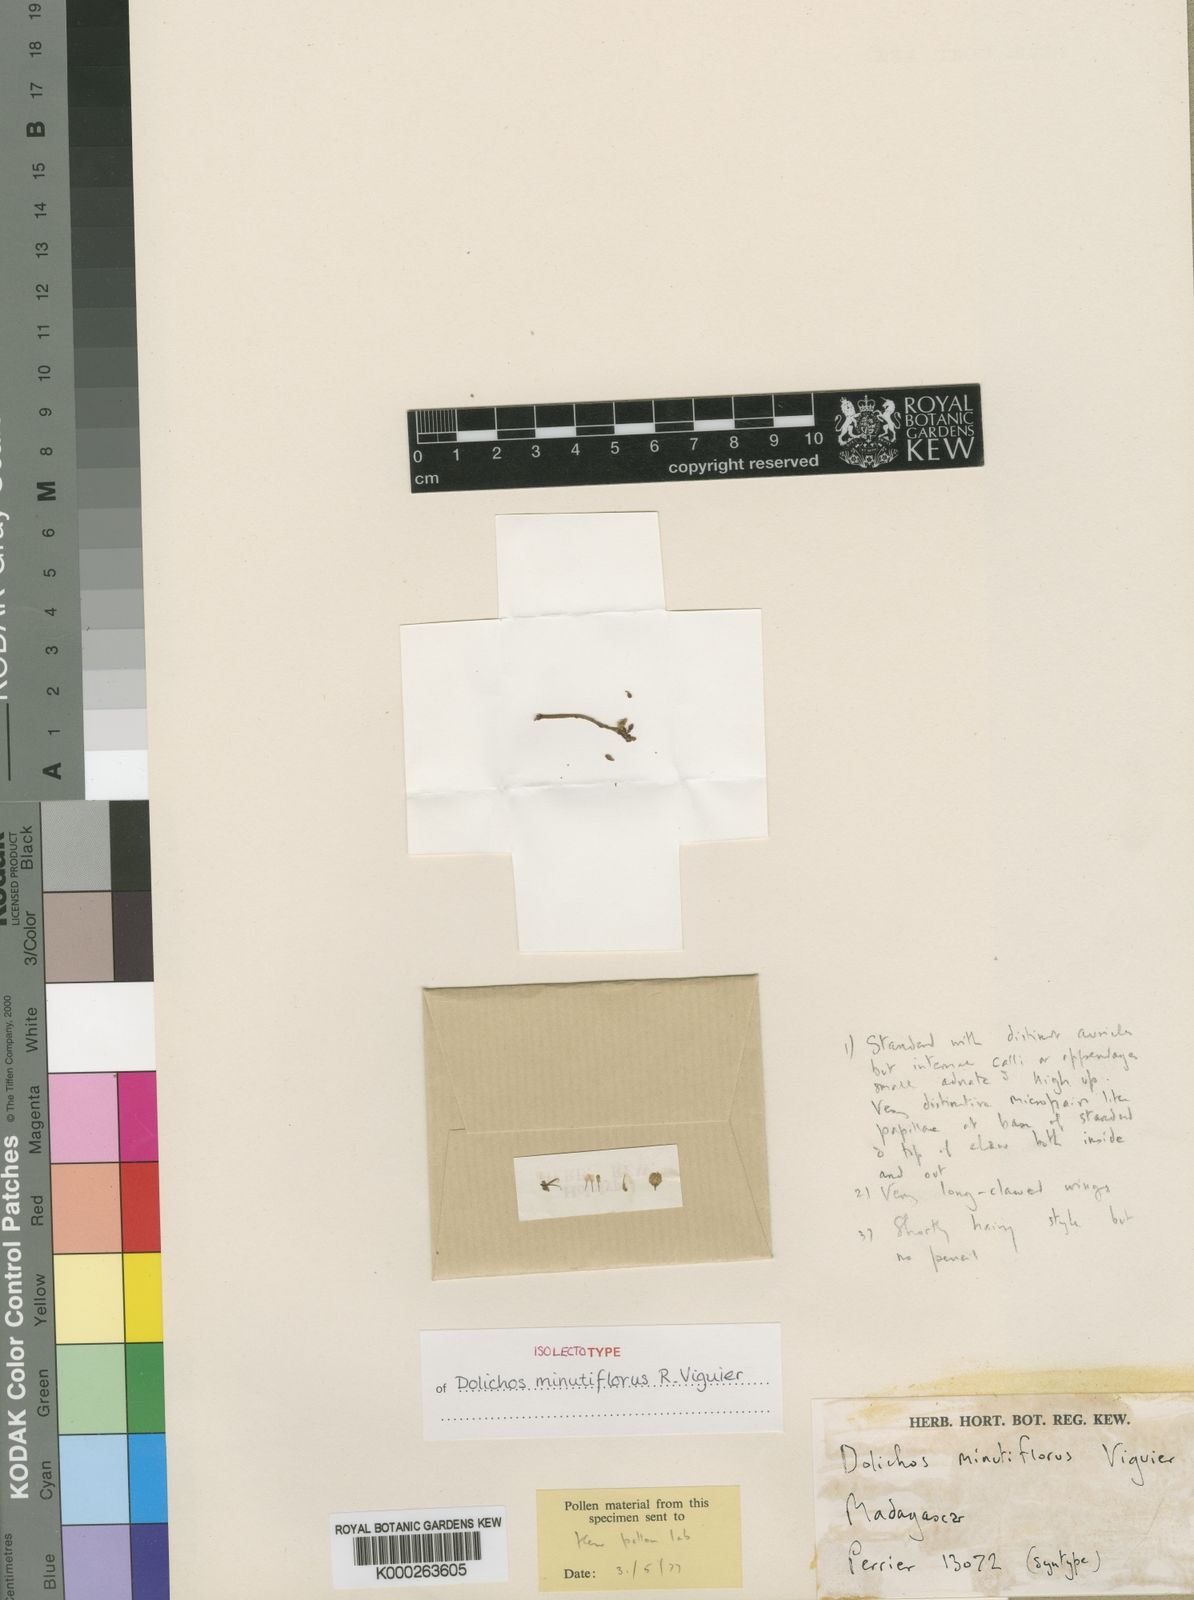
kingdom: Plantae
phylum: Tracheophyta
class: Magnoliopsida
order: Fabales
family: Fabaceae
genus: Dolichos
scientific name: Dolichos minutiflorus
